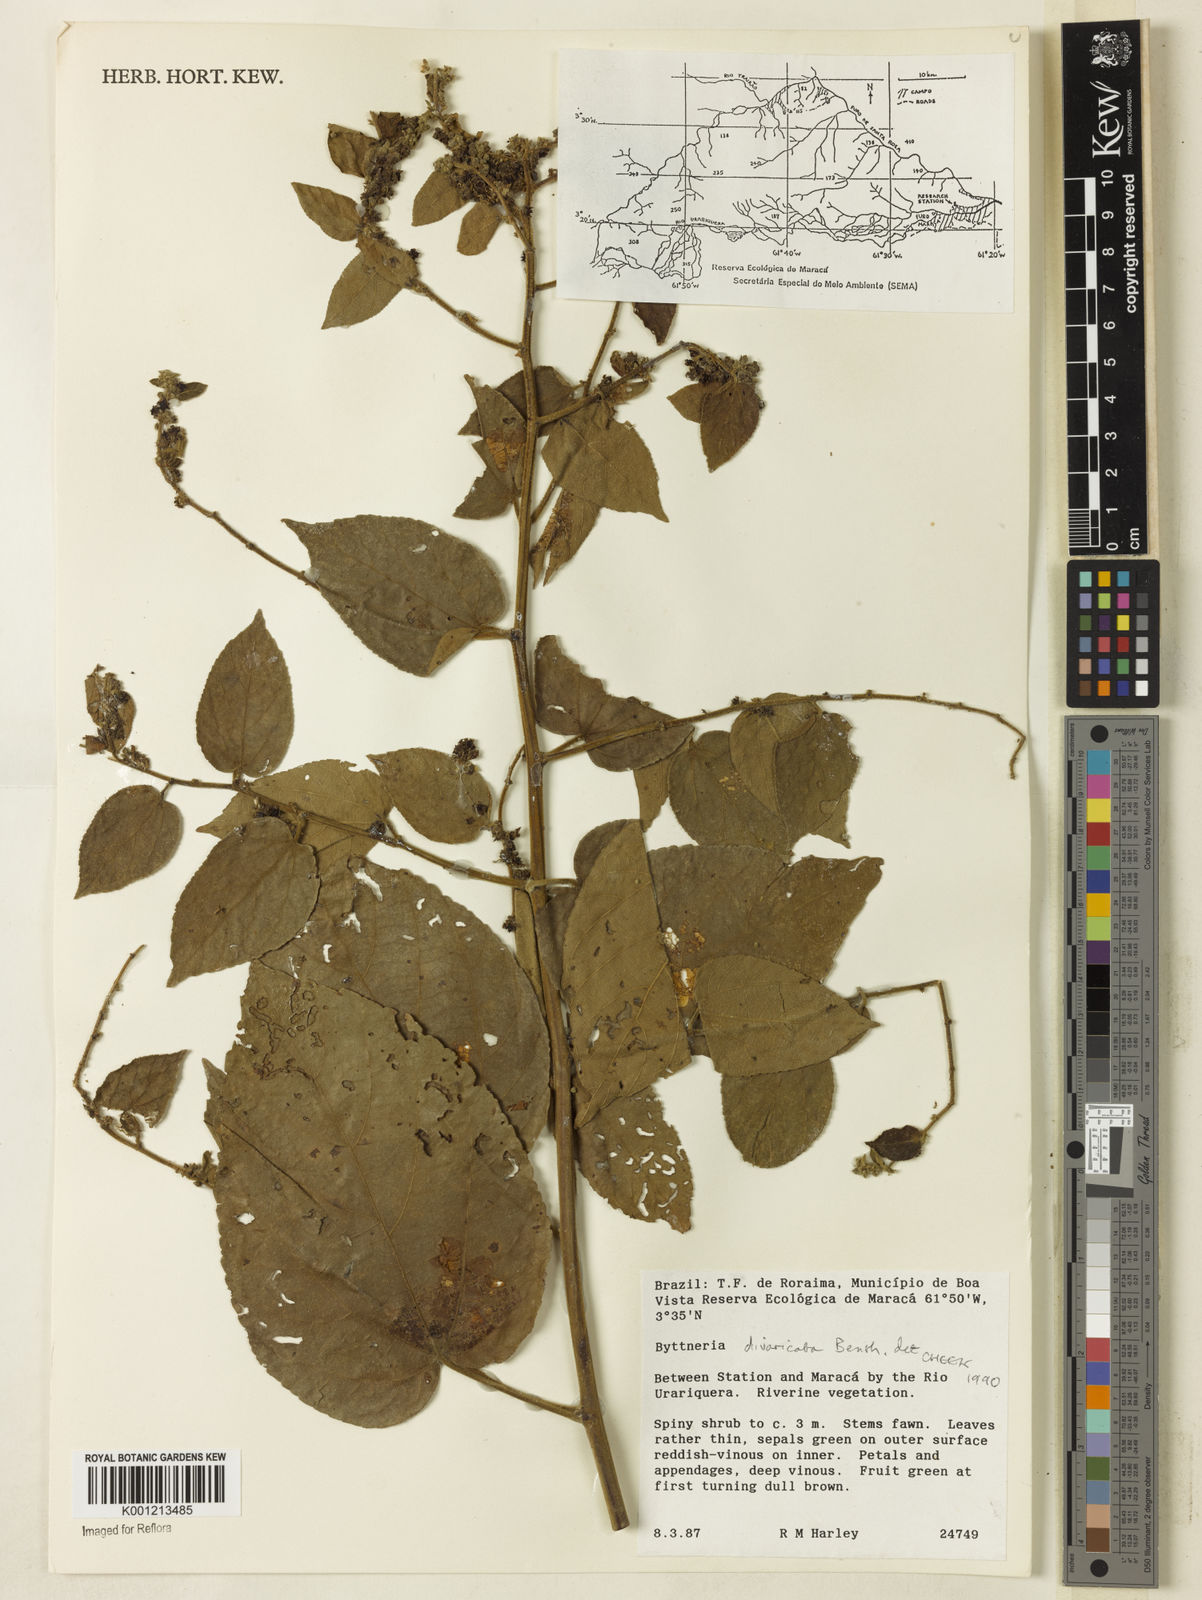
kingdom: Plantae
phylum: Tracheophyta
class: Magnoliopsida
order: Malvales
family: Malvaceae
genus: Byttneria
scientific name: Byttneria divaricata
